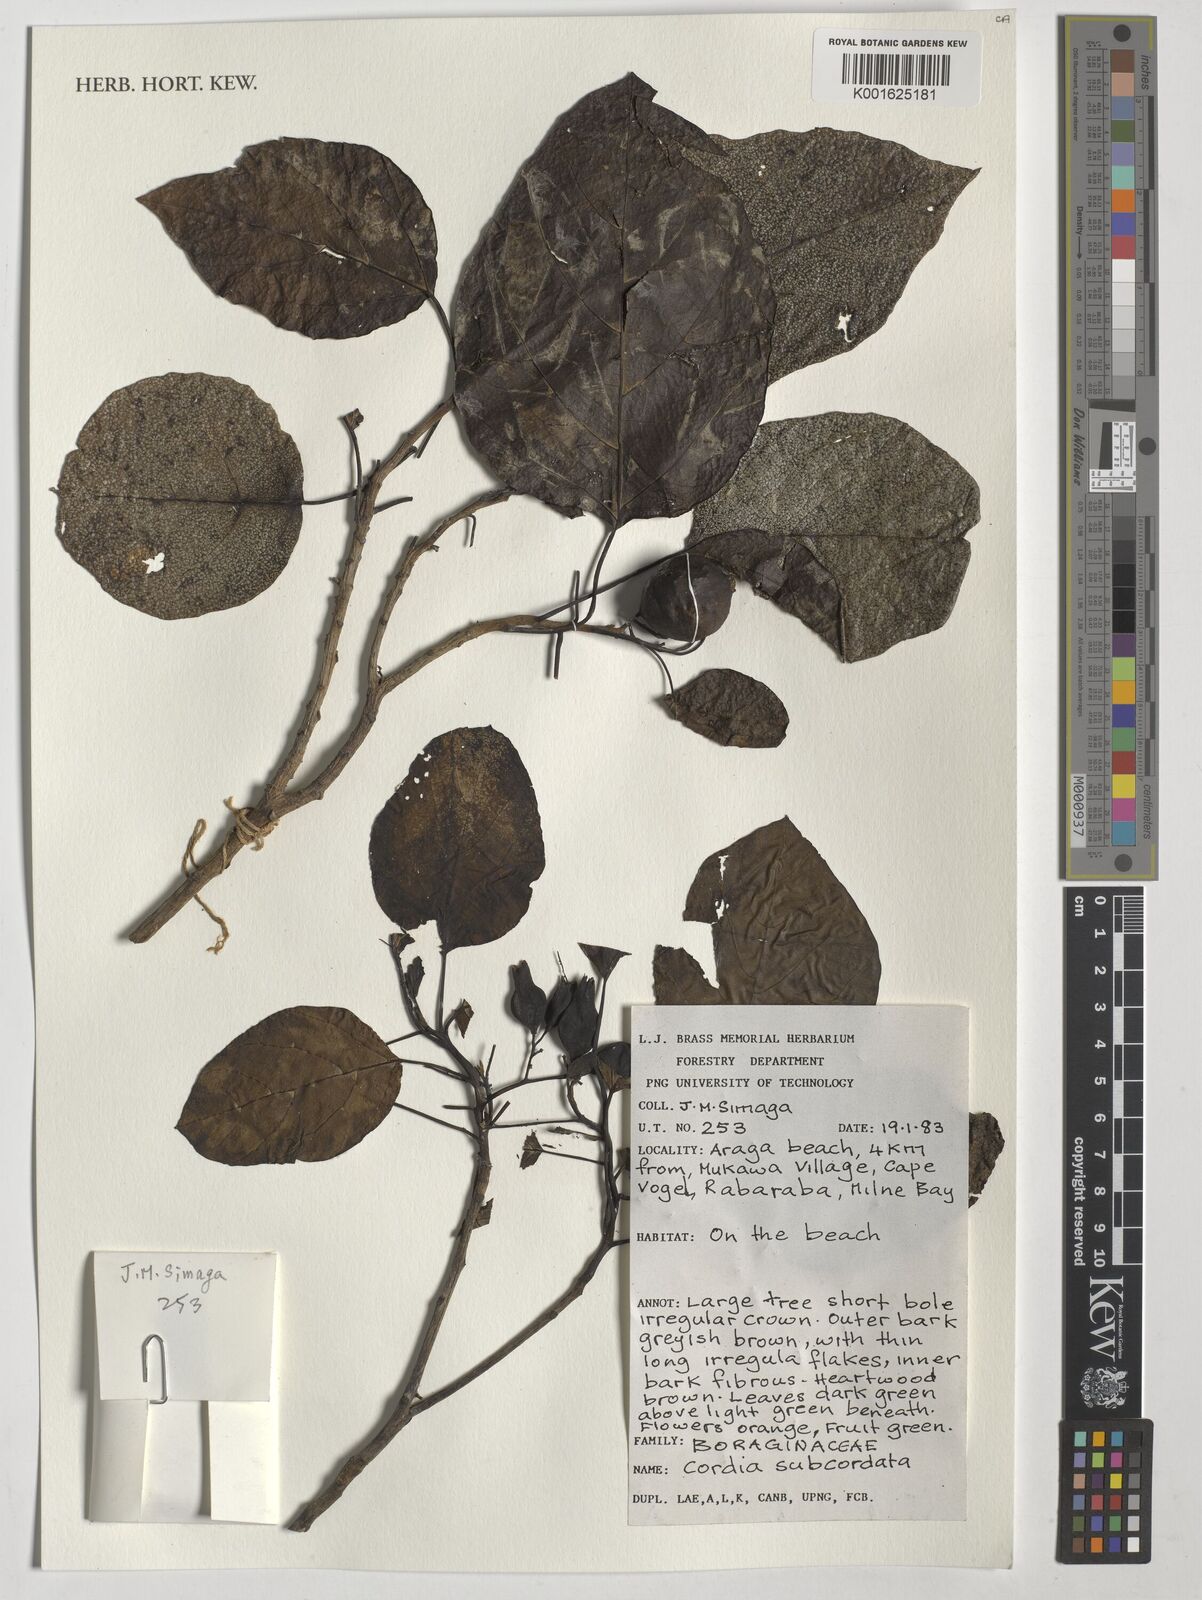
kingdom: Plantae
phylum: Tracheophyta
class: Magnoliopsida
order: Boraginales
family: Cordiaceae
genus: Cordia
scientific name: Cordia subcordata
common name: Mareer
